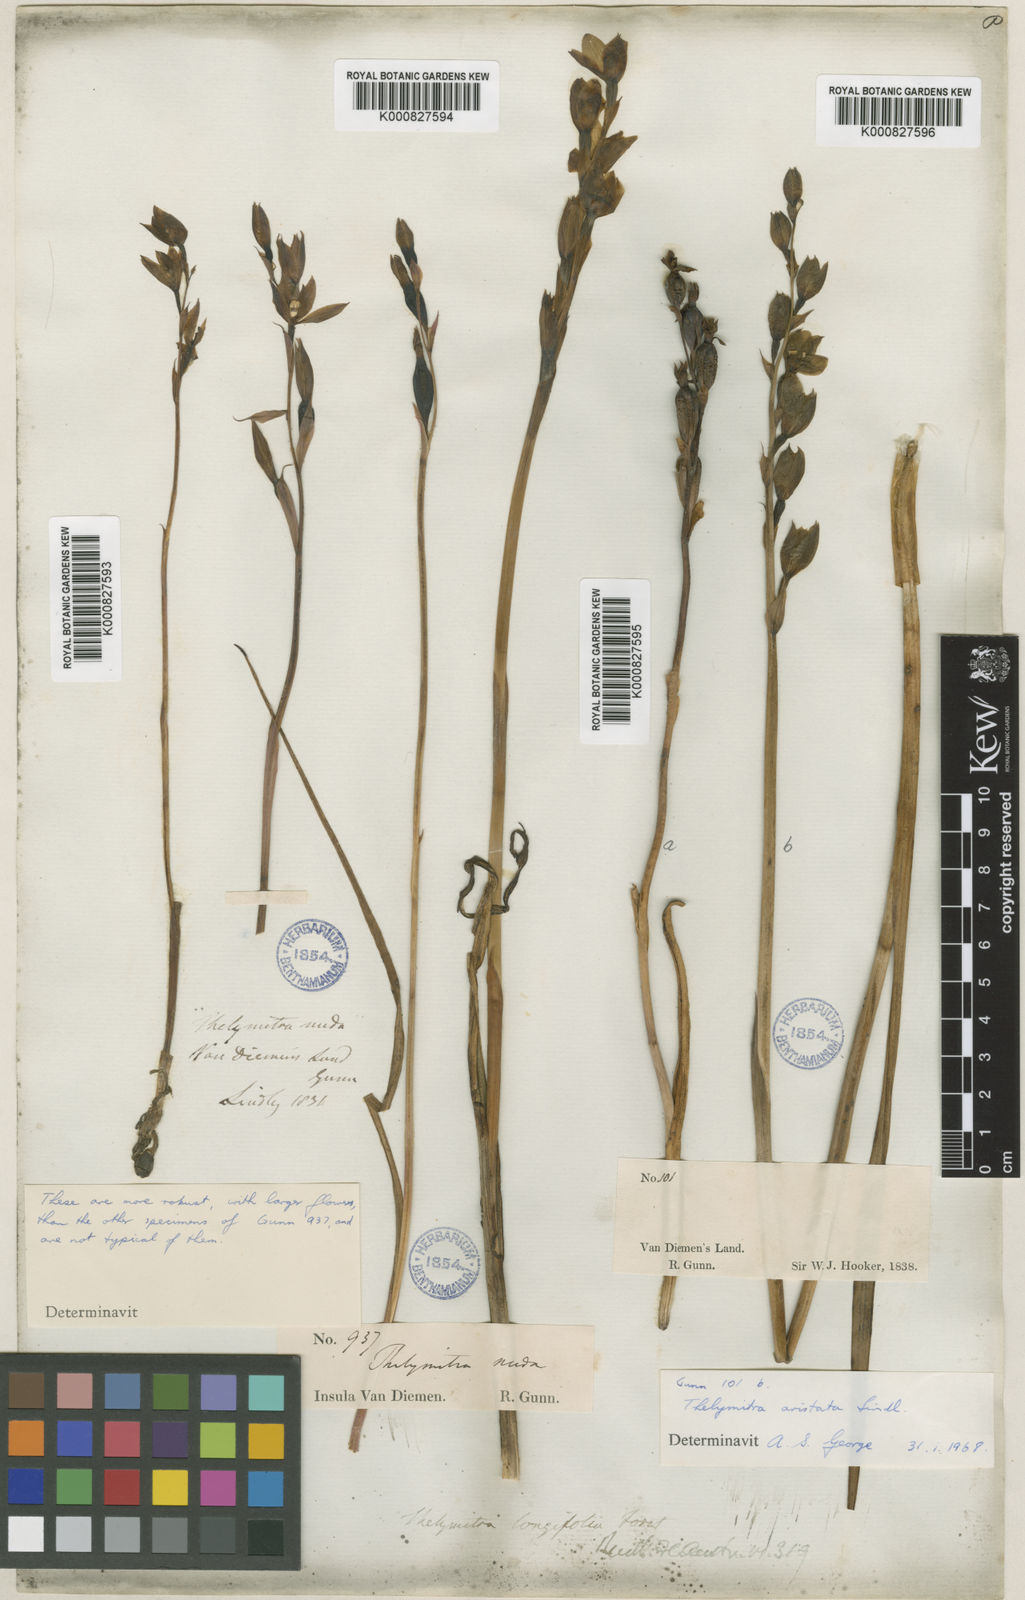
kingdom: Plantae
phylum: Tracheophyta
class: Liliopsida
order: Asparagales
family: Orchidaceae
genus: Thelymitra
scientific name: Thelymitra aristata
